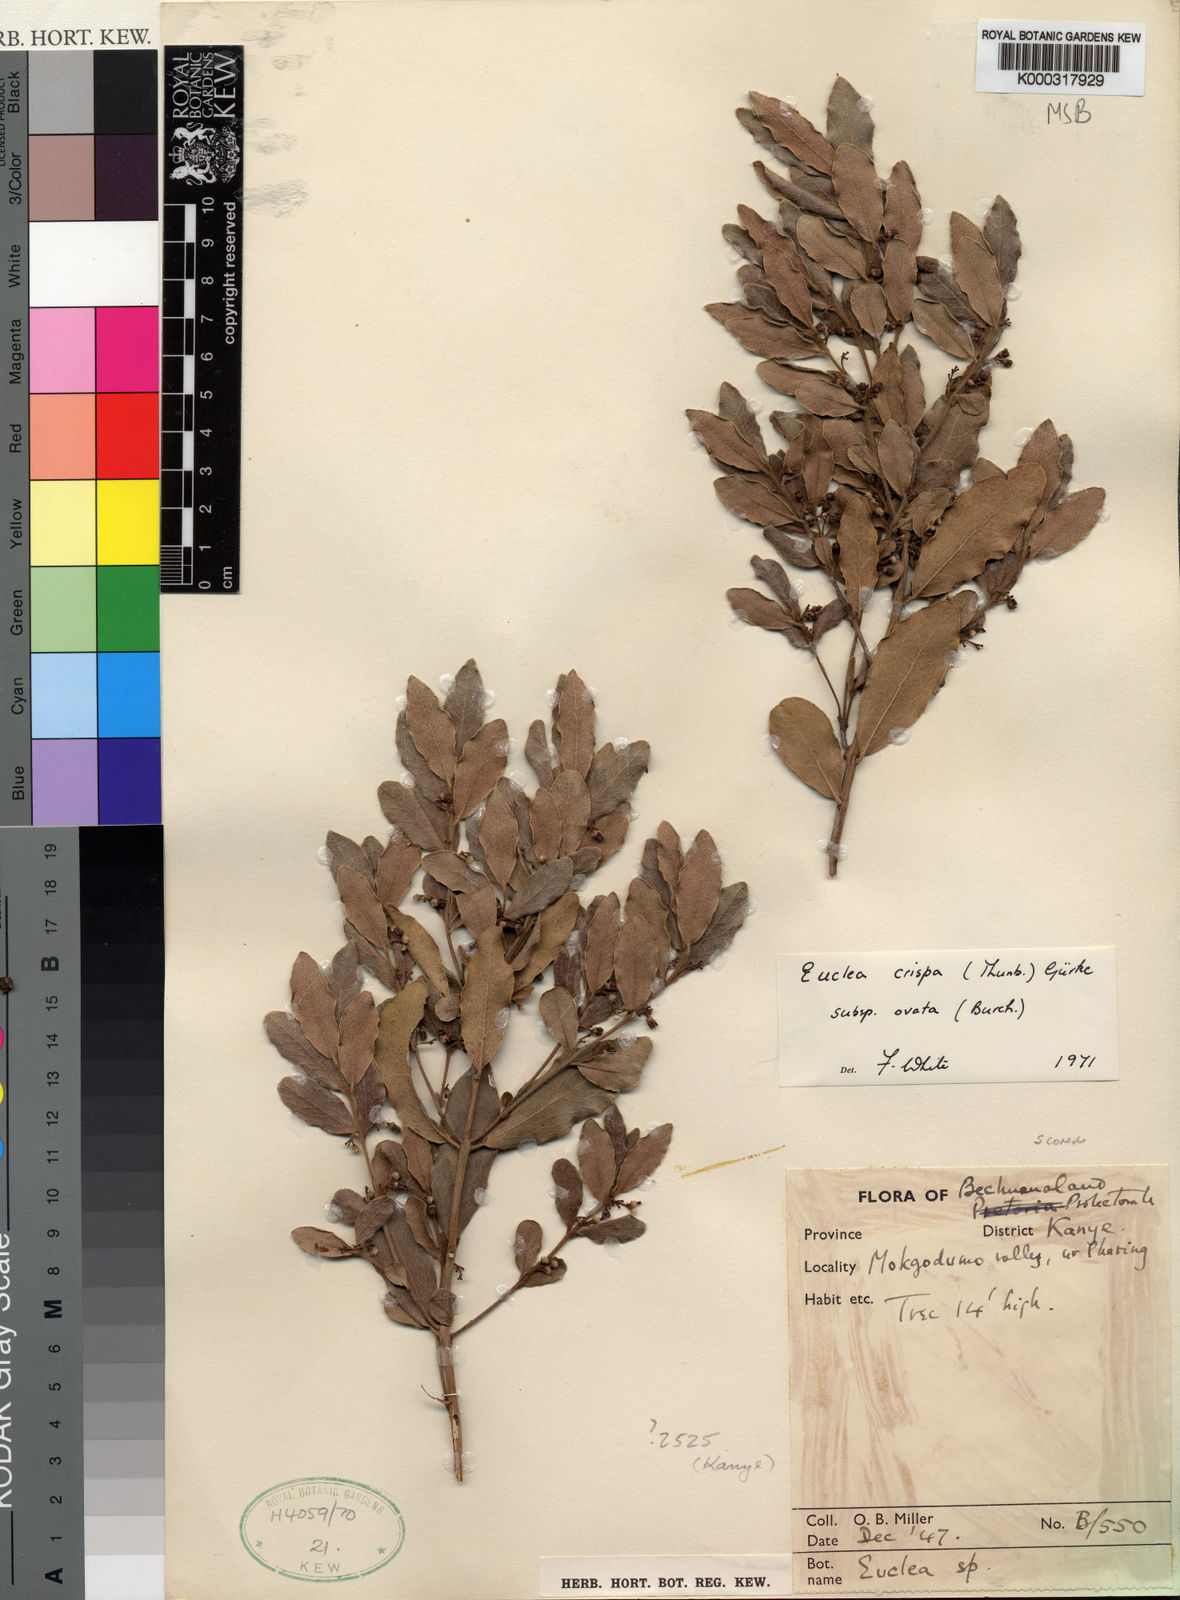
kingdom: Plantae
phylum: Tracheophyta
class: Magnoliopsida
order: Ericales
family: Ebenaceae
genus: Euclea
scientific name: Euclea
